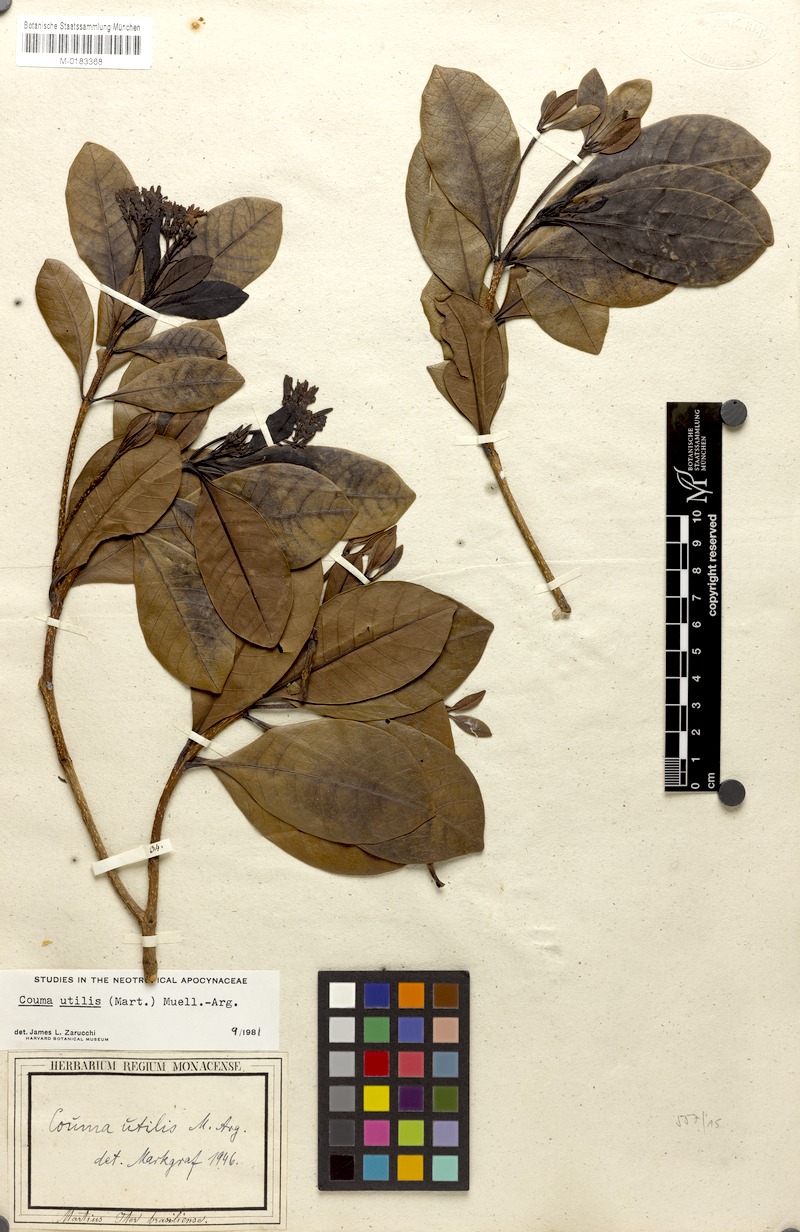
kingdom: Plantae
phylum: Tracheophyta
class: Magnoliopsida
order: Gentianales
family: Apocynaceae
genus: Couma
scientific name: Couma utilis
